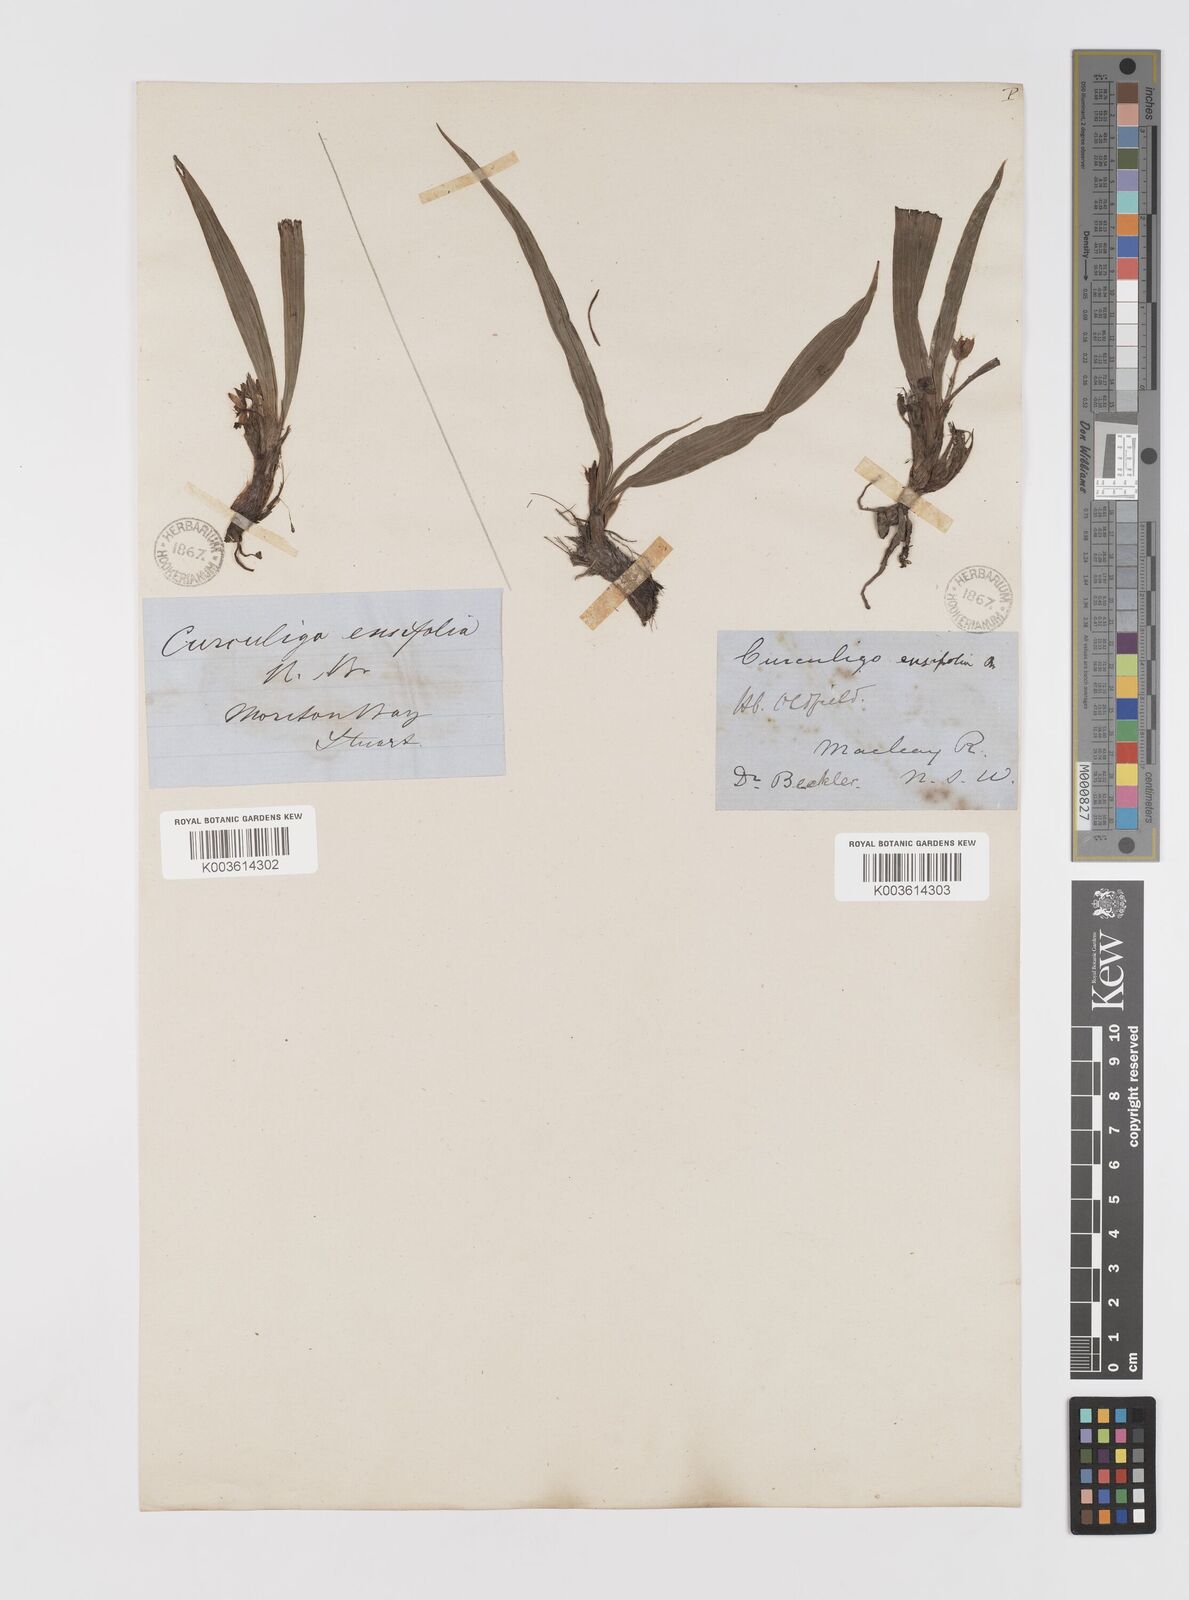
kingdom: Plantae
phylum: Tracheophyta
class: Liliopsida
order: Asparagales
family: Hypoxidaceae
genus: Curculigo
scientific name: Curculigo orchioides
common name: Golden eye-grass
